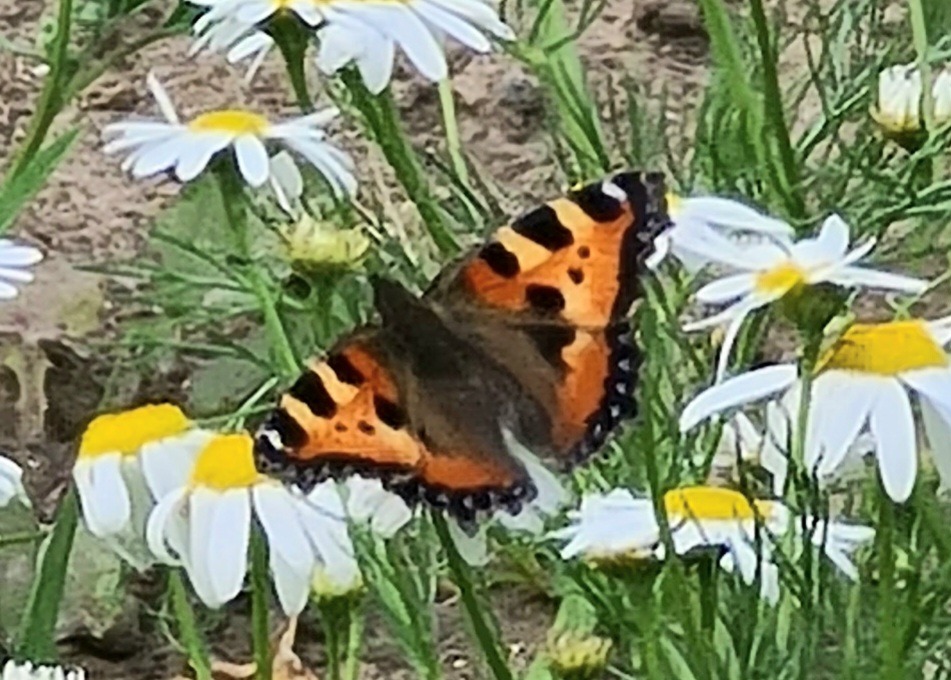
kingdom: Animalia
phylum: Arthropoda
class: Insecta
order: Lepidoptera
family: Nymphalidae
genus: Aglais
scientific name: Aglais urticae
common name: Nældens takvinge
